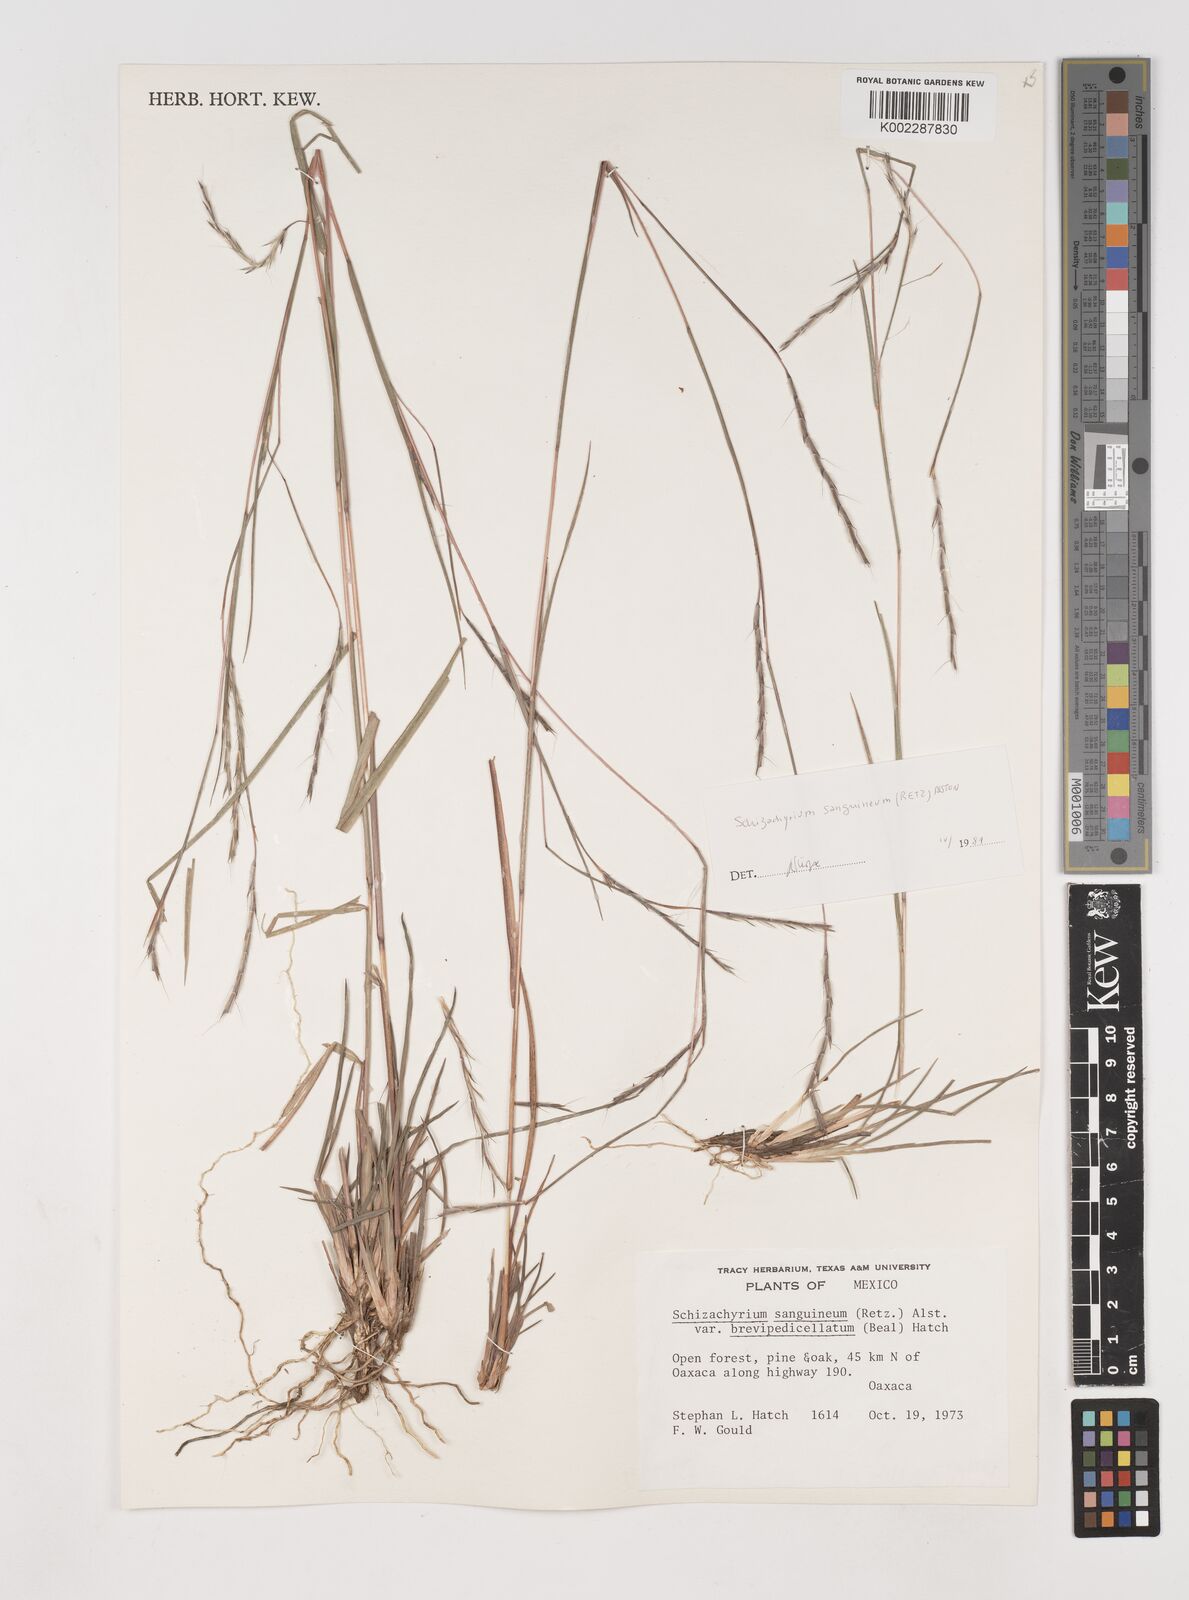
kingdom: Plantae
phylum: Tracheophyta
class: Liliopsida
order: Poales
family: Poaceae
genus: Schizachyrium
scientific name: Schizachyrium sanguineum
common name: Crimson bluestem
